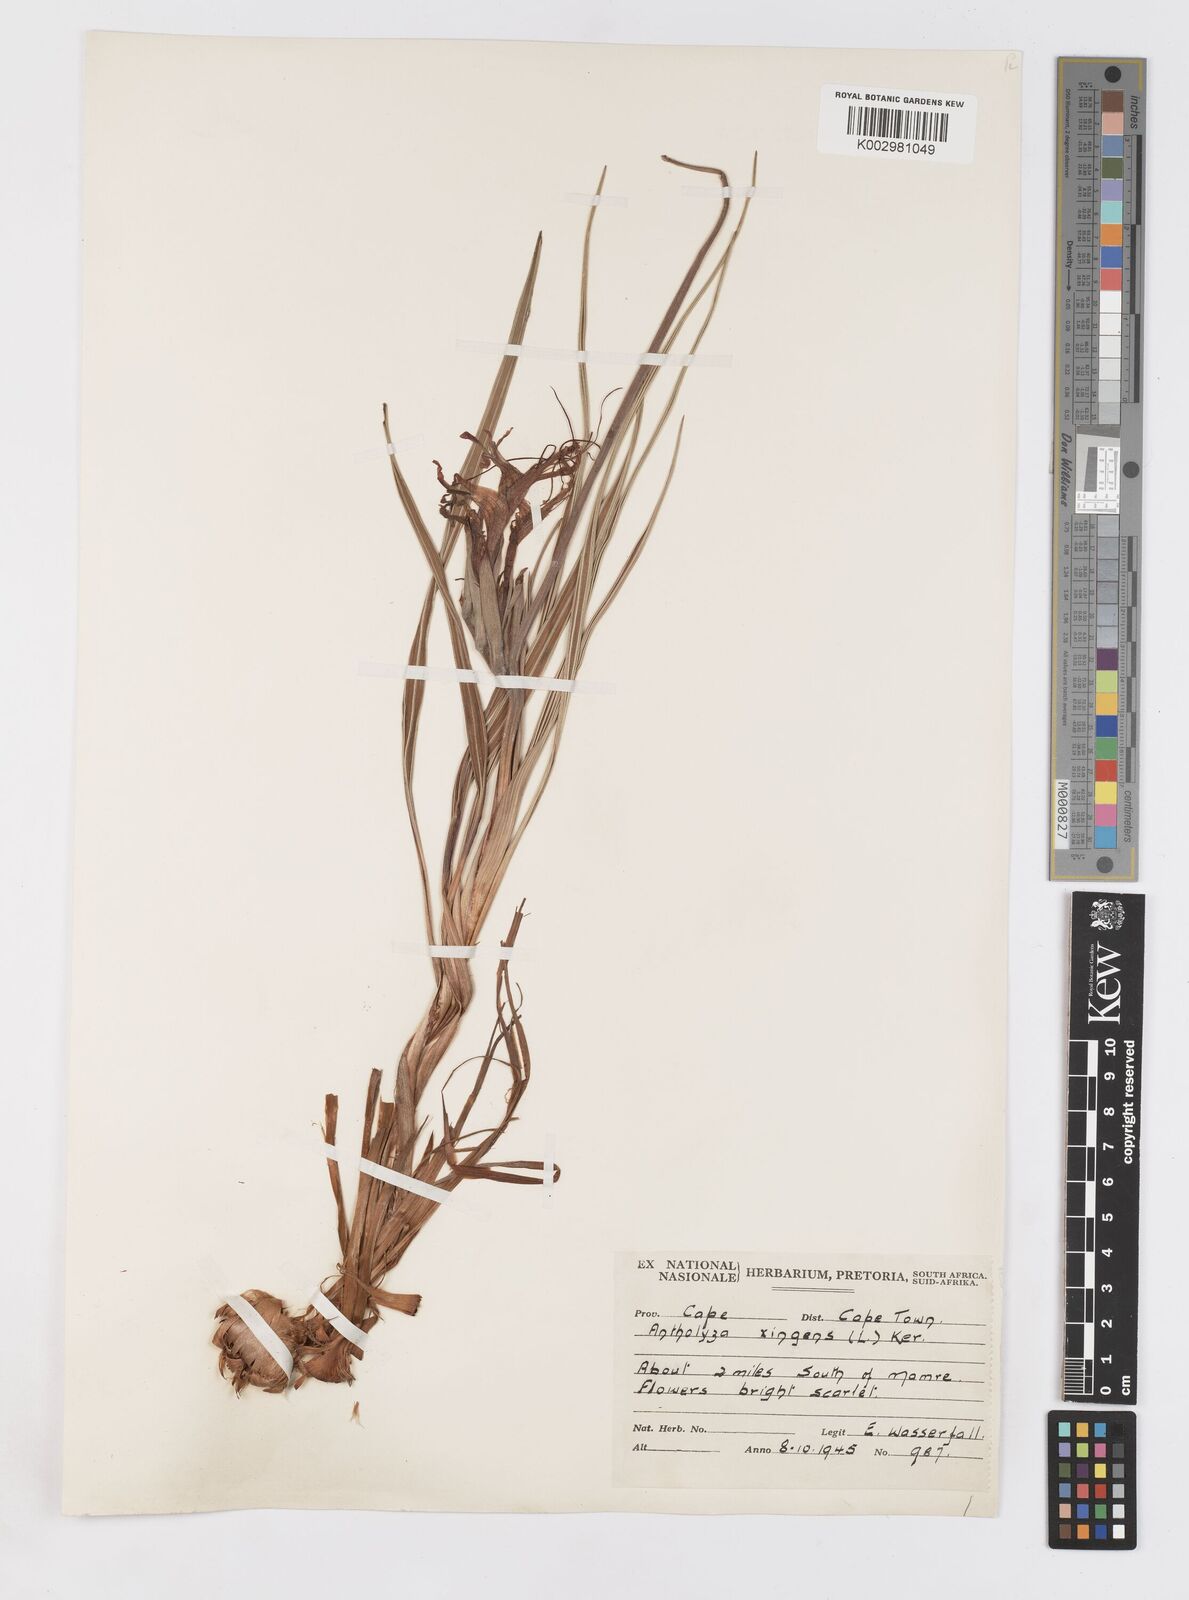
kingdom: Plantae
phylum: Tracheophyta
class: Liliopsida
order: Asparagales
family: Iridaceae
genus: Babiana
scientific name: Babiana ringens
